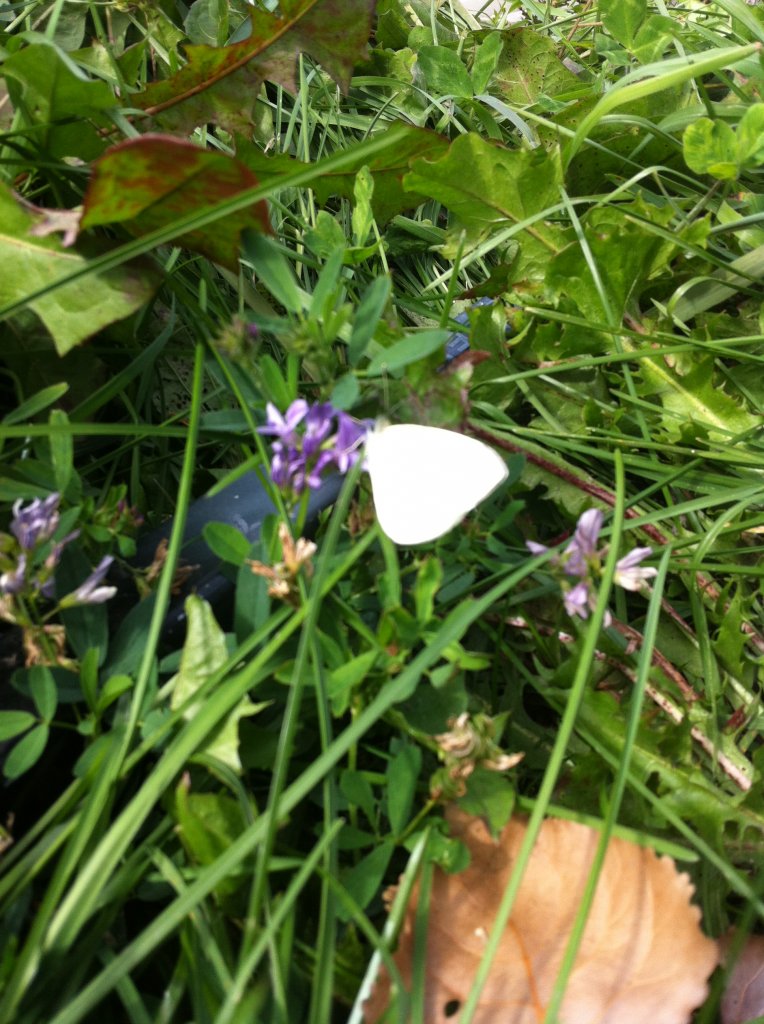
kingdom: Animalia
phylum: Arthropoda
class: Insecta
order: Lepidoptera
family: Pieridae
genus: Pieris
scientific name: Pieris rapae
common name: Cabbage White
